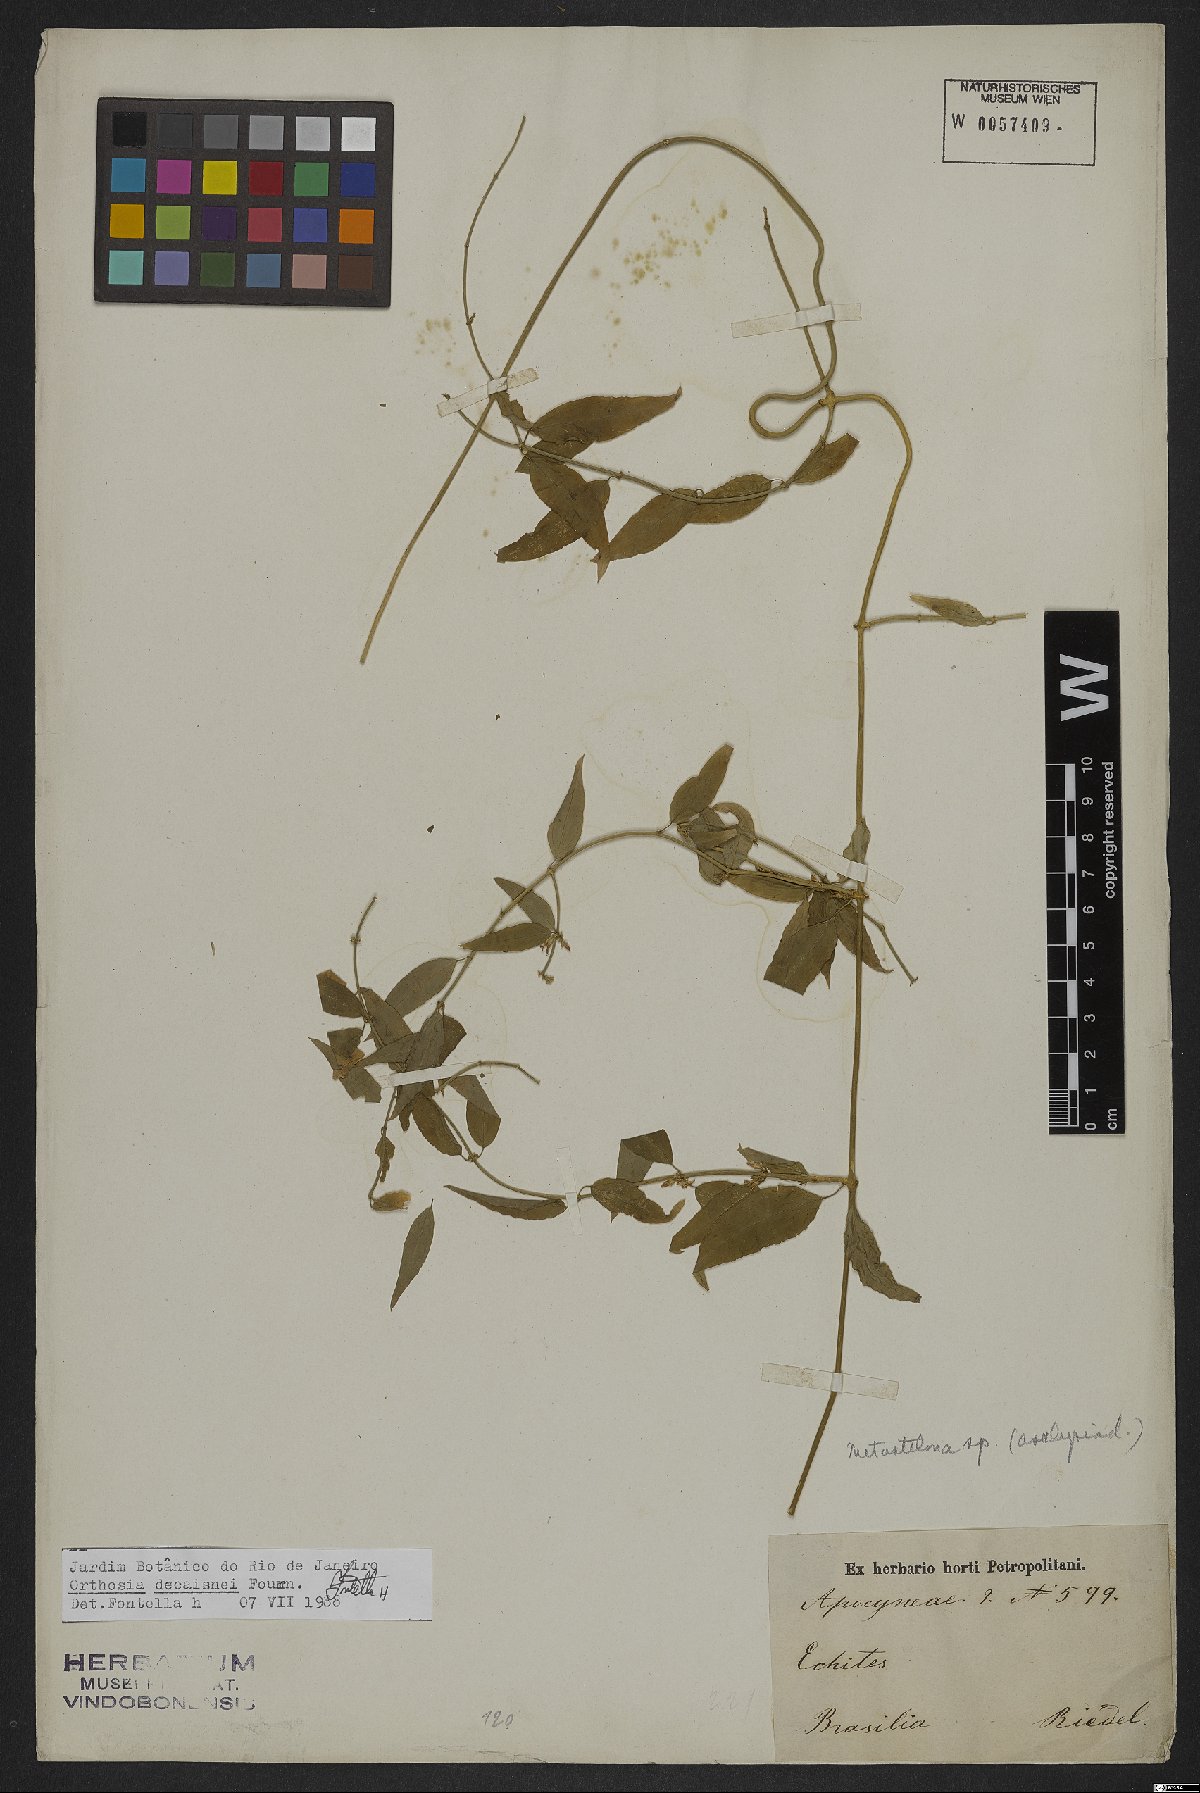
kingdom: Plantae
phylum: Tracheophyta
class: Magnoliopsida
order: Gentianales
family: Apocynaceae
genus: Orthosia
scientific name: Orthosia urceolata
